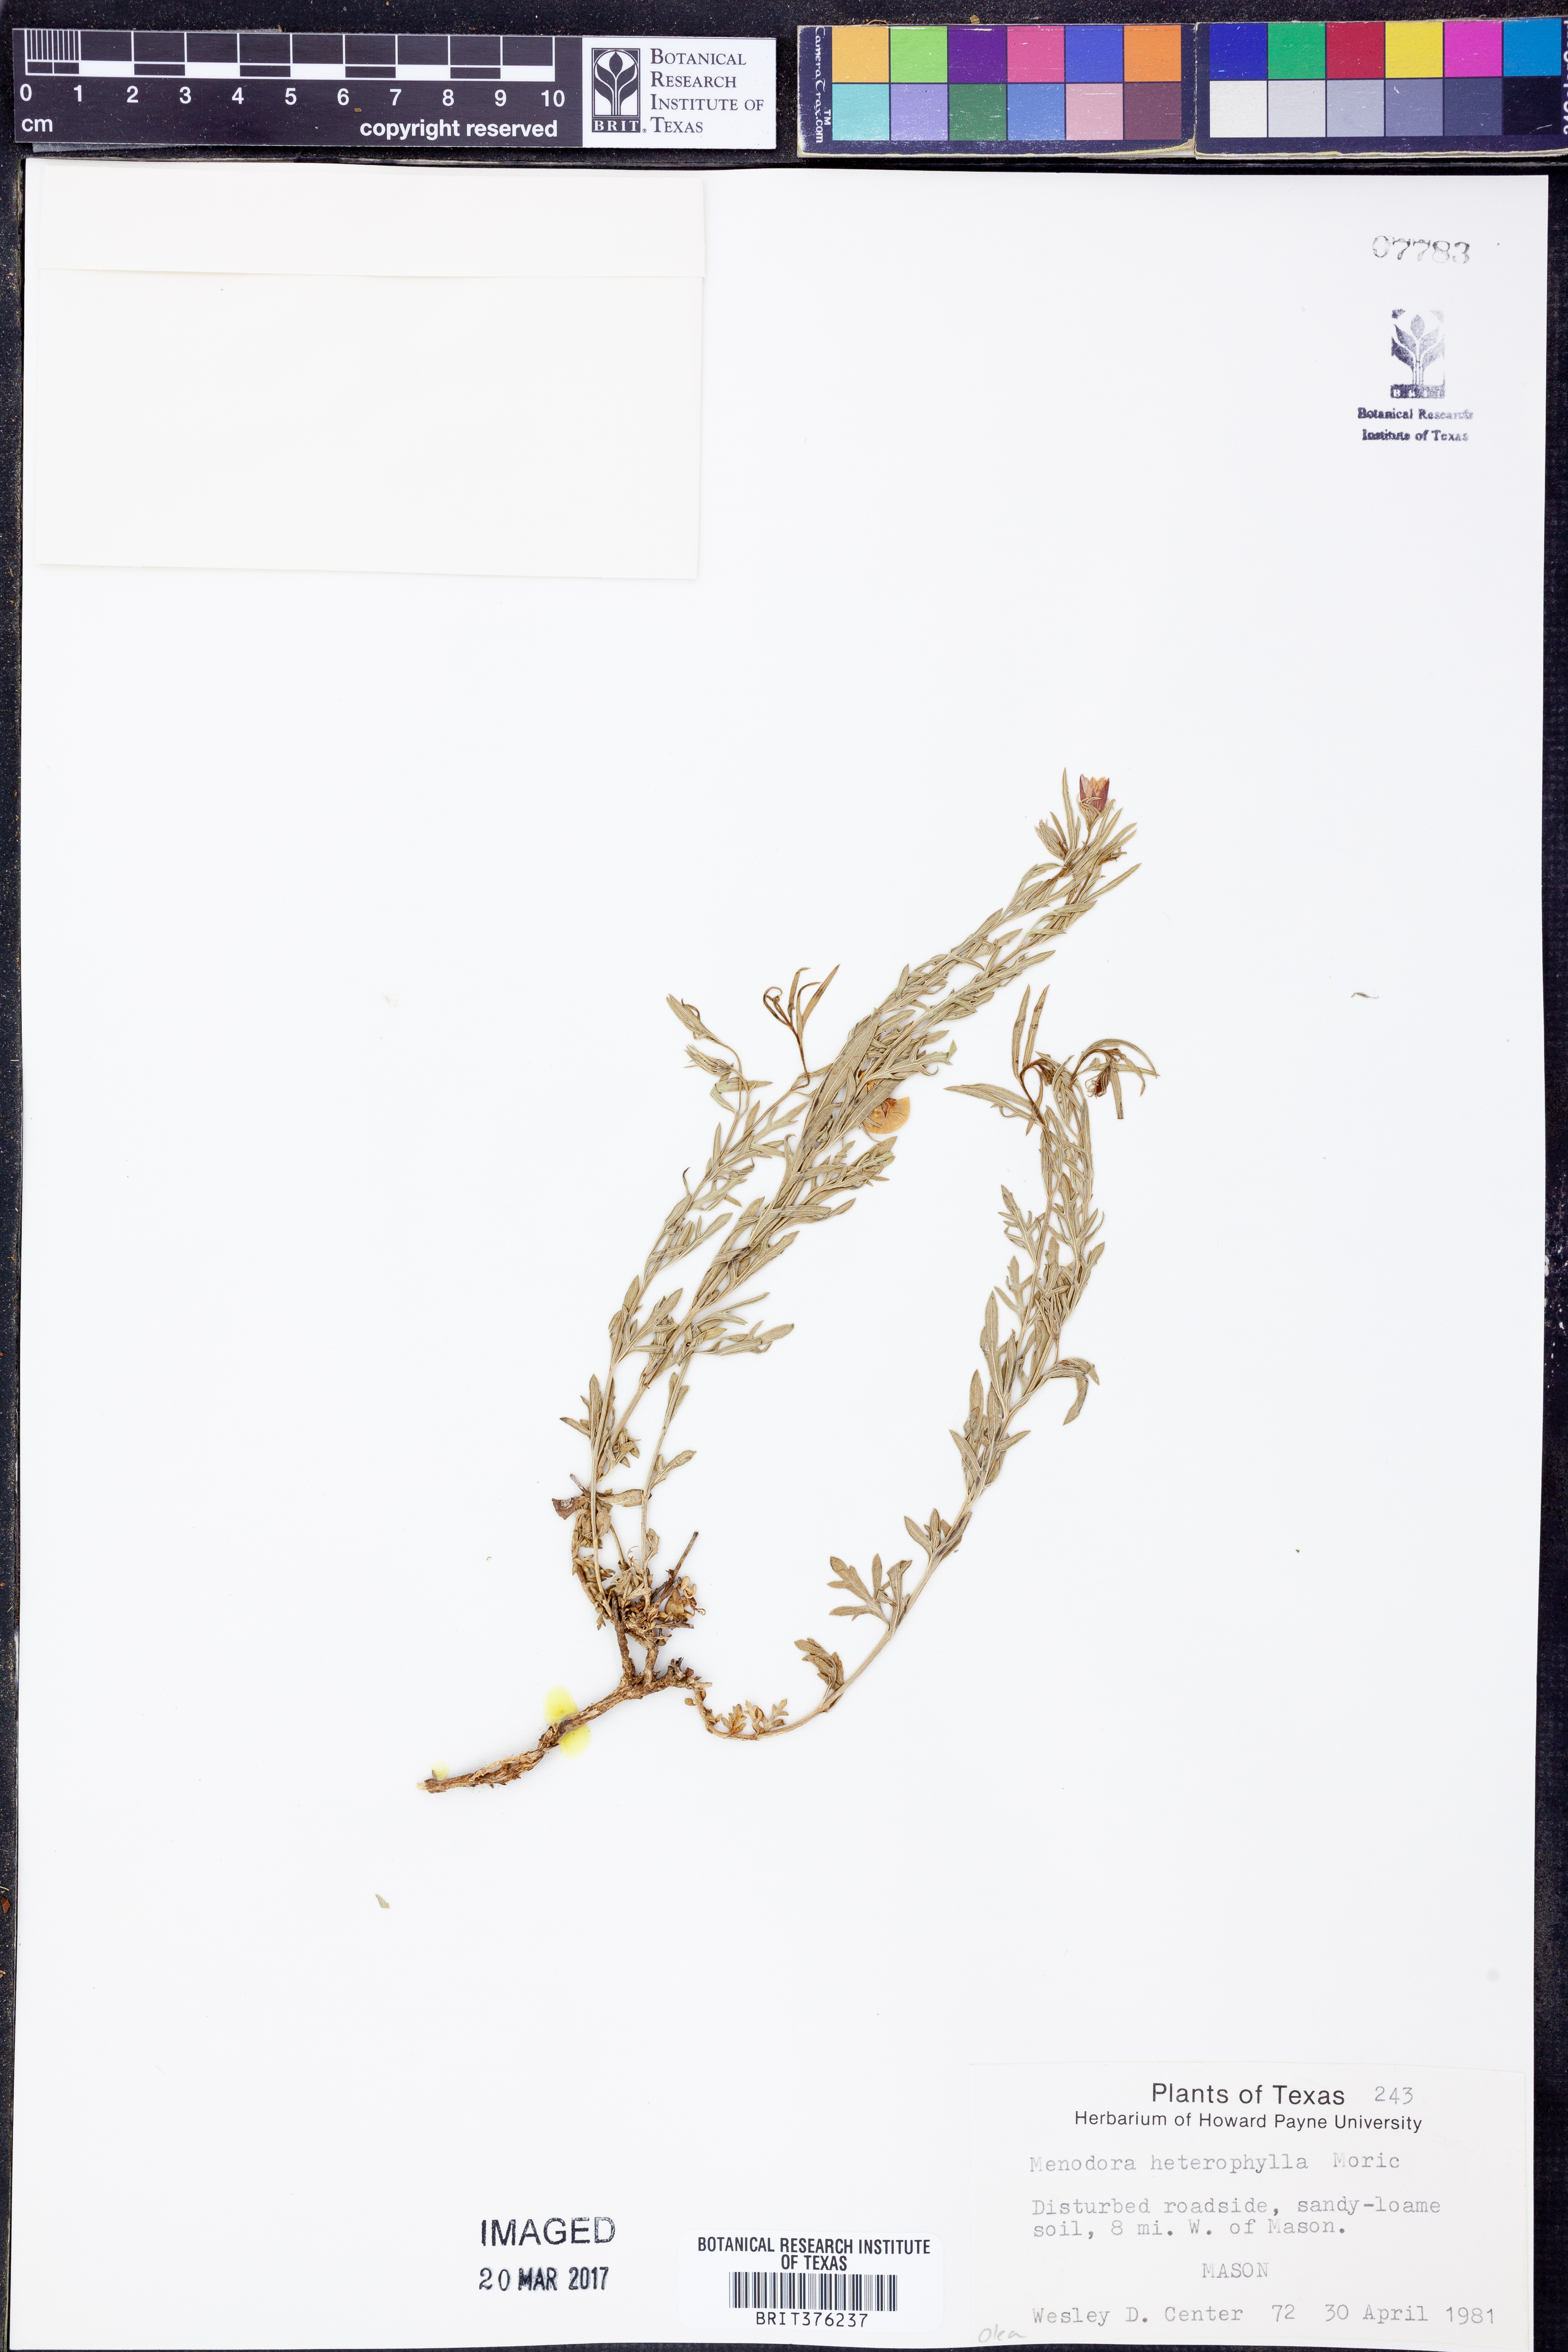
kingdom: Plantae
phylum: Tracheophyta
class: Magnoliopsida
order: Lamiales
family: Oleaceae
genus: Menodora
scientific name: Menodora heterophylla
